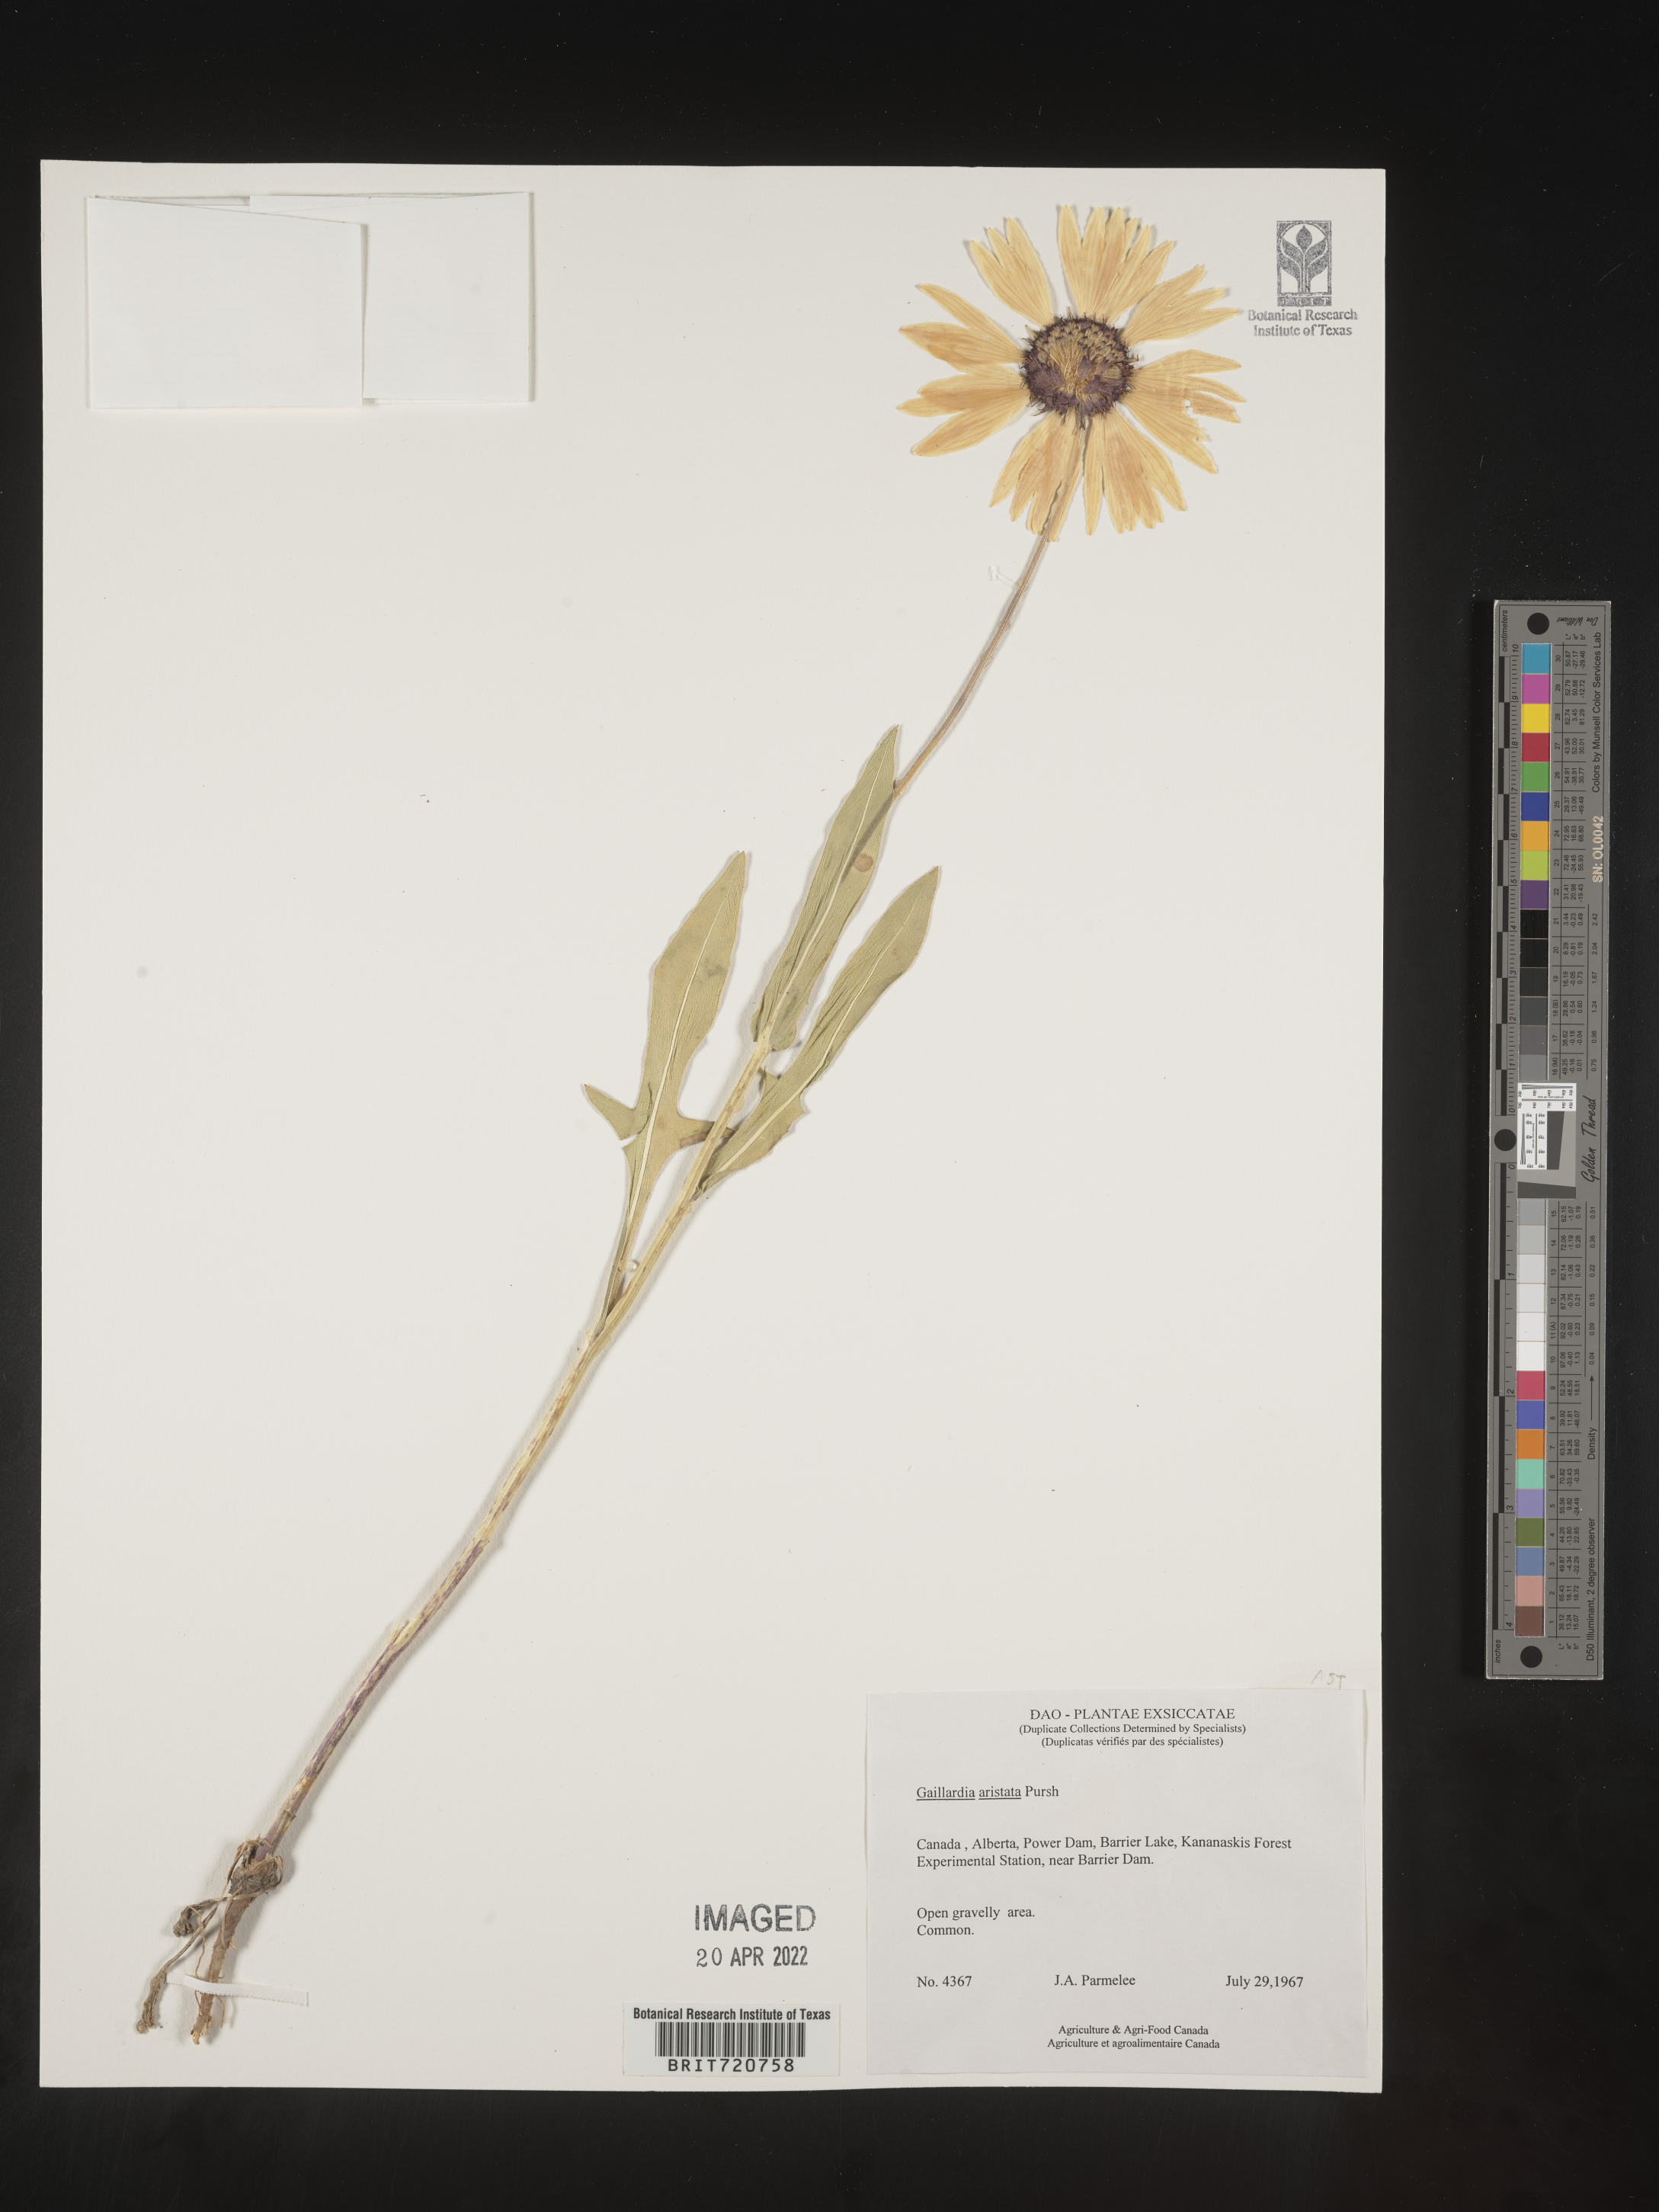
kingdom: Plantae
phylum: Tracheophyta
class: Magnoliopsida
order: Asterales
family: Asteraceae
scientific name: Asteraceae
